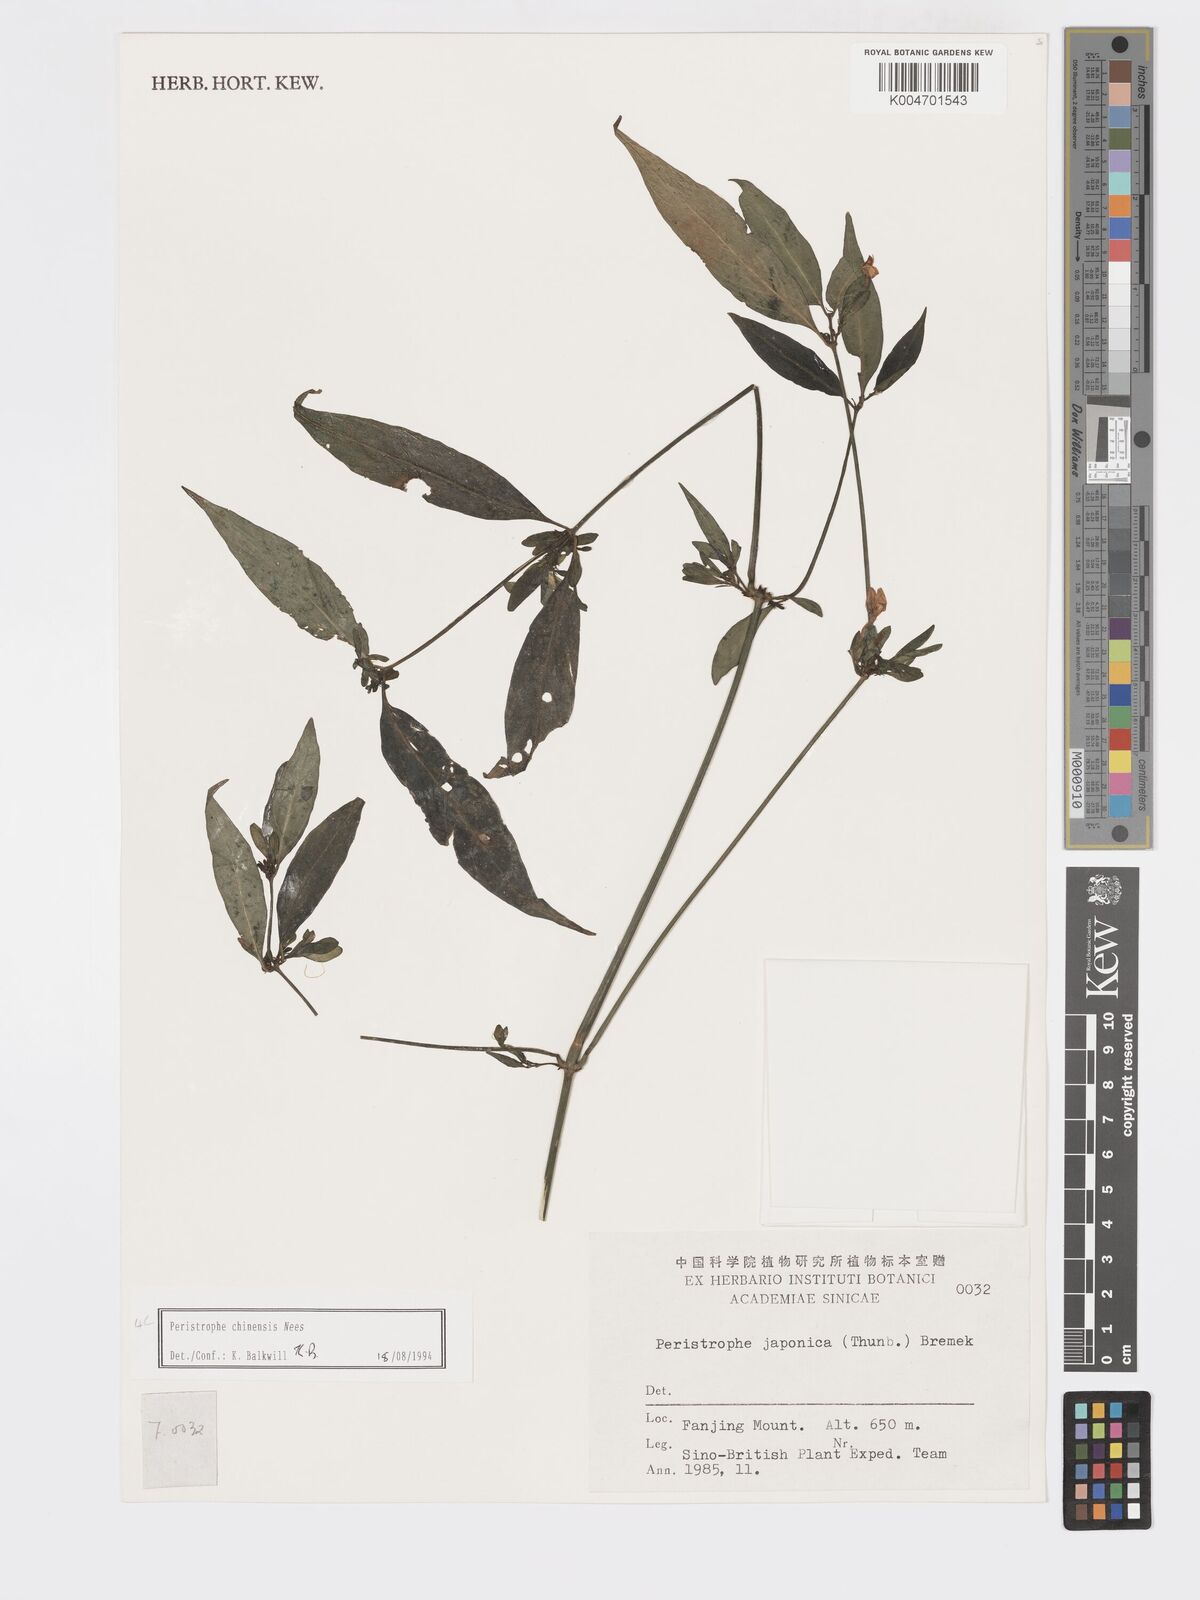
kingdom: Plantae
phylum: Tracheophyta
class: Magnoliopsida
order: Lamiales
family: Acanthaceae
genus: Dicliptera
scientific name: Dicliptera chinensis
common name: Chinese foldwing
